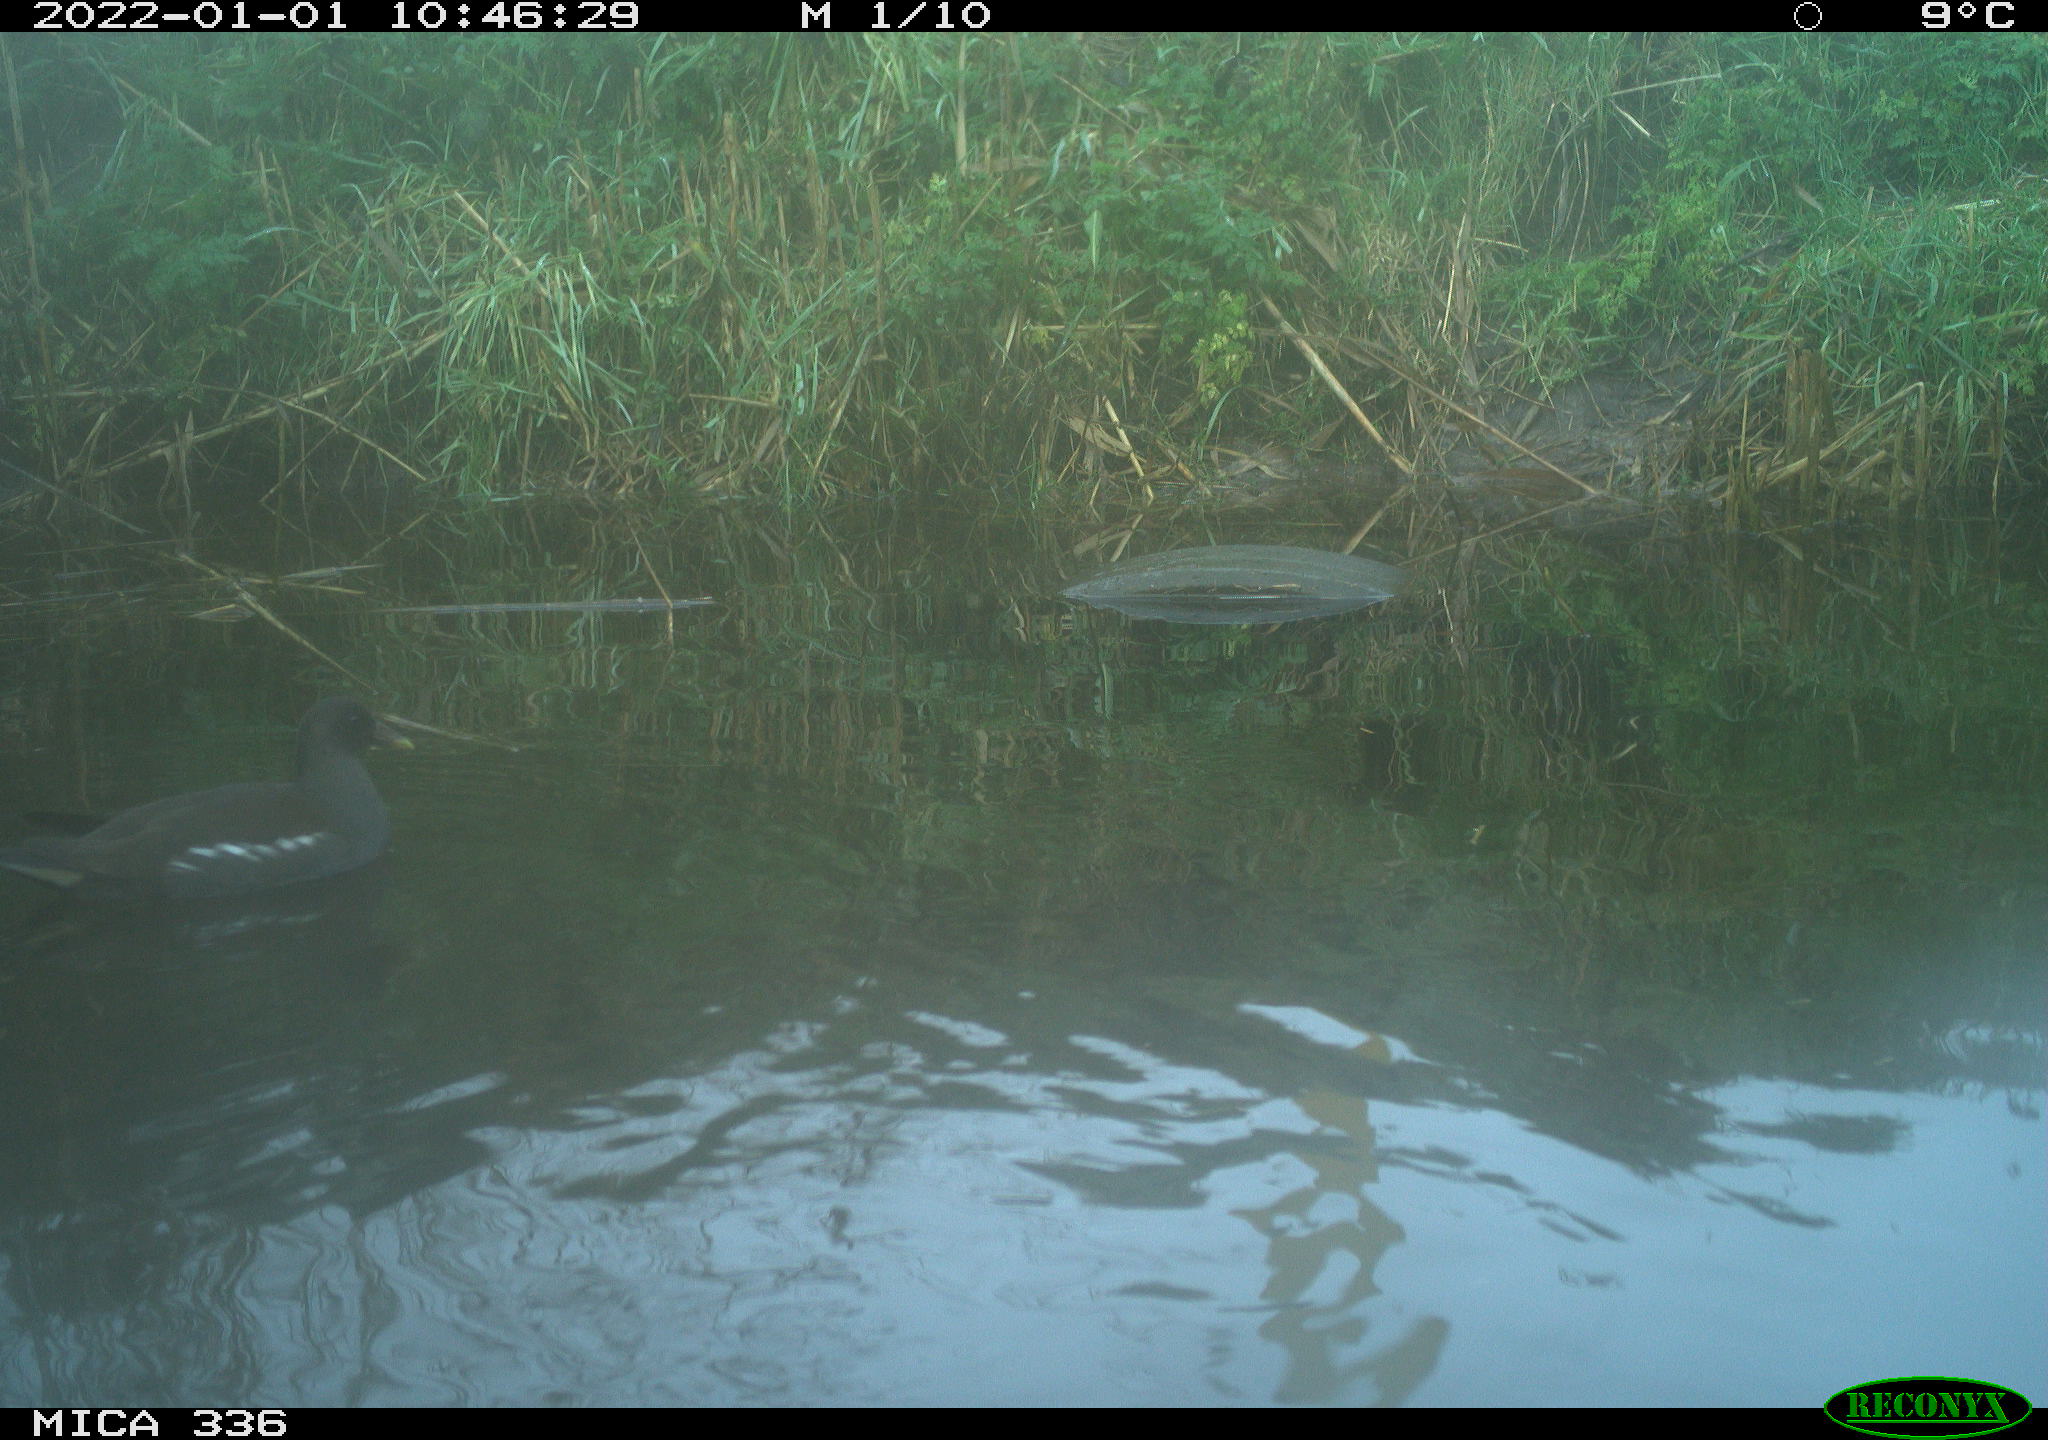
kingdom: Animalia
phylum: Chordata
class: Aves
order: Gruiformes
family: Rallidae
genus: Gallinula
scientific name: Gallinula chloropus
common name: Common moorhen
